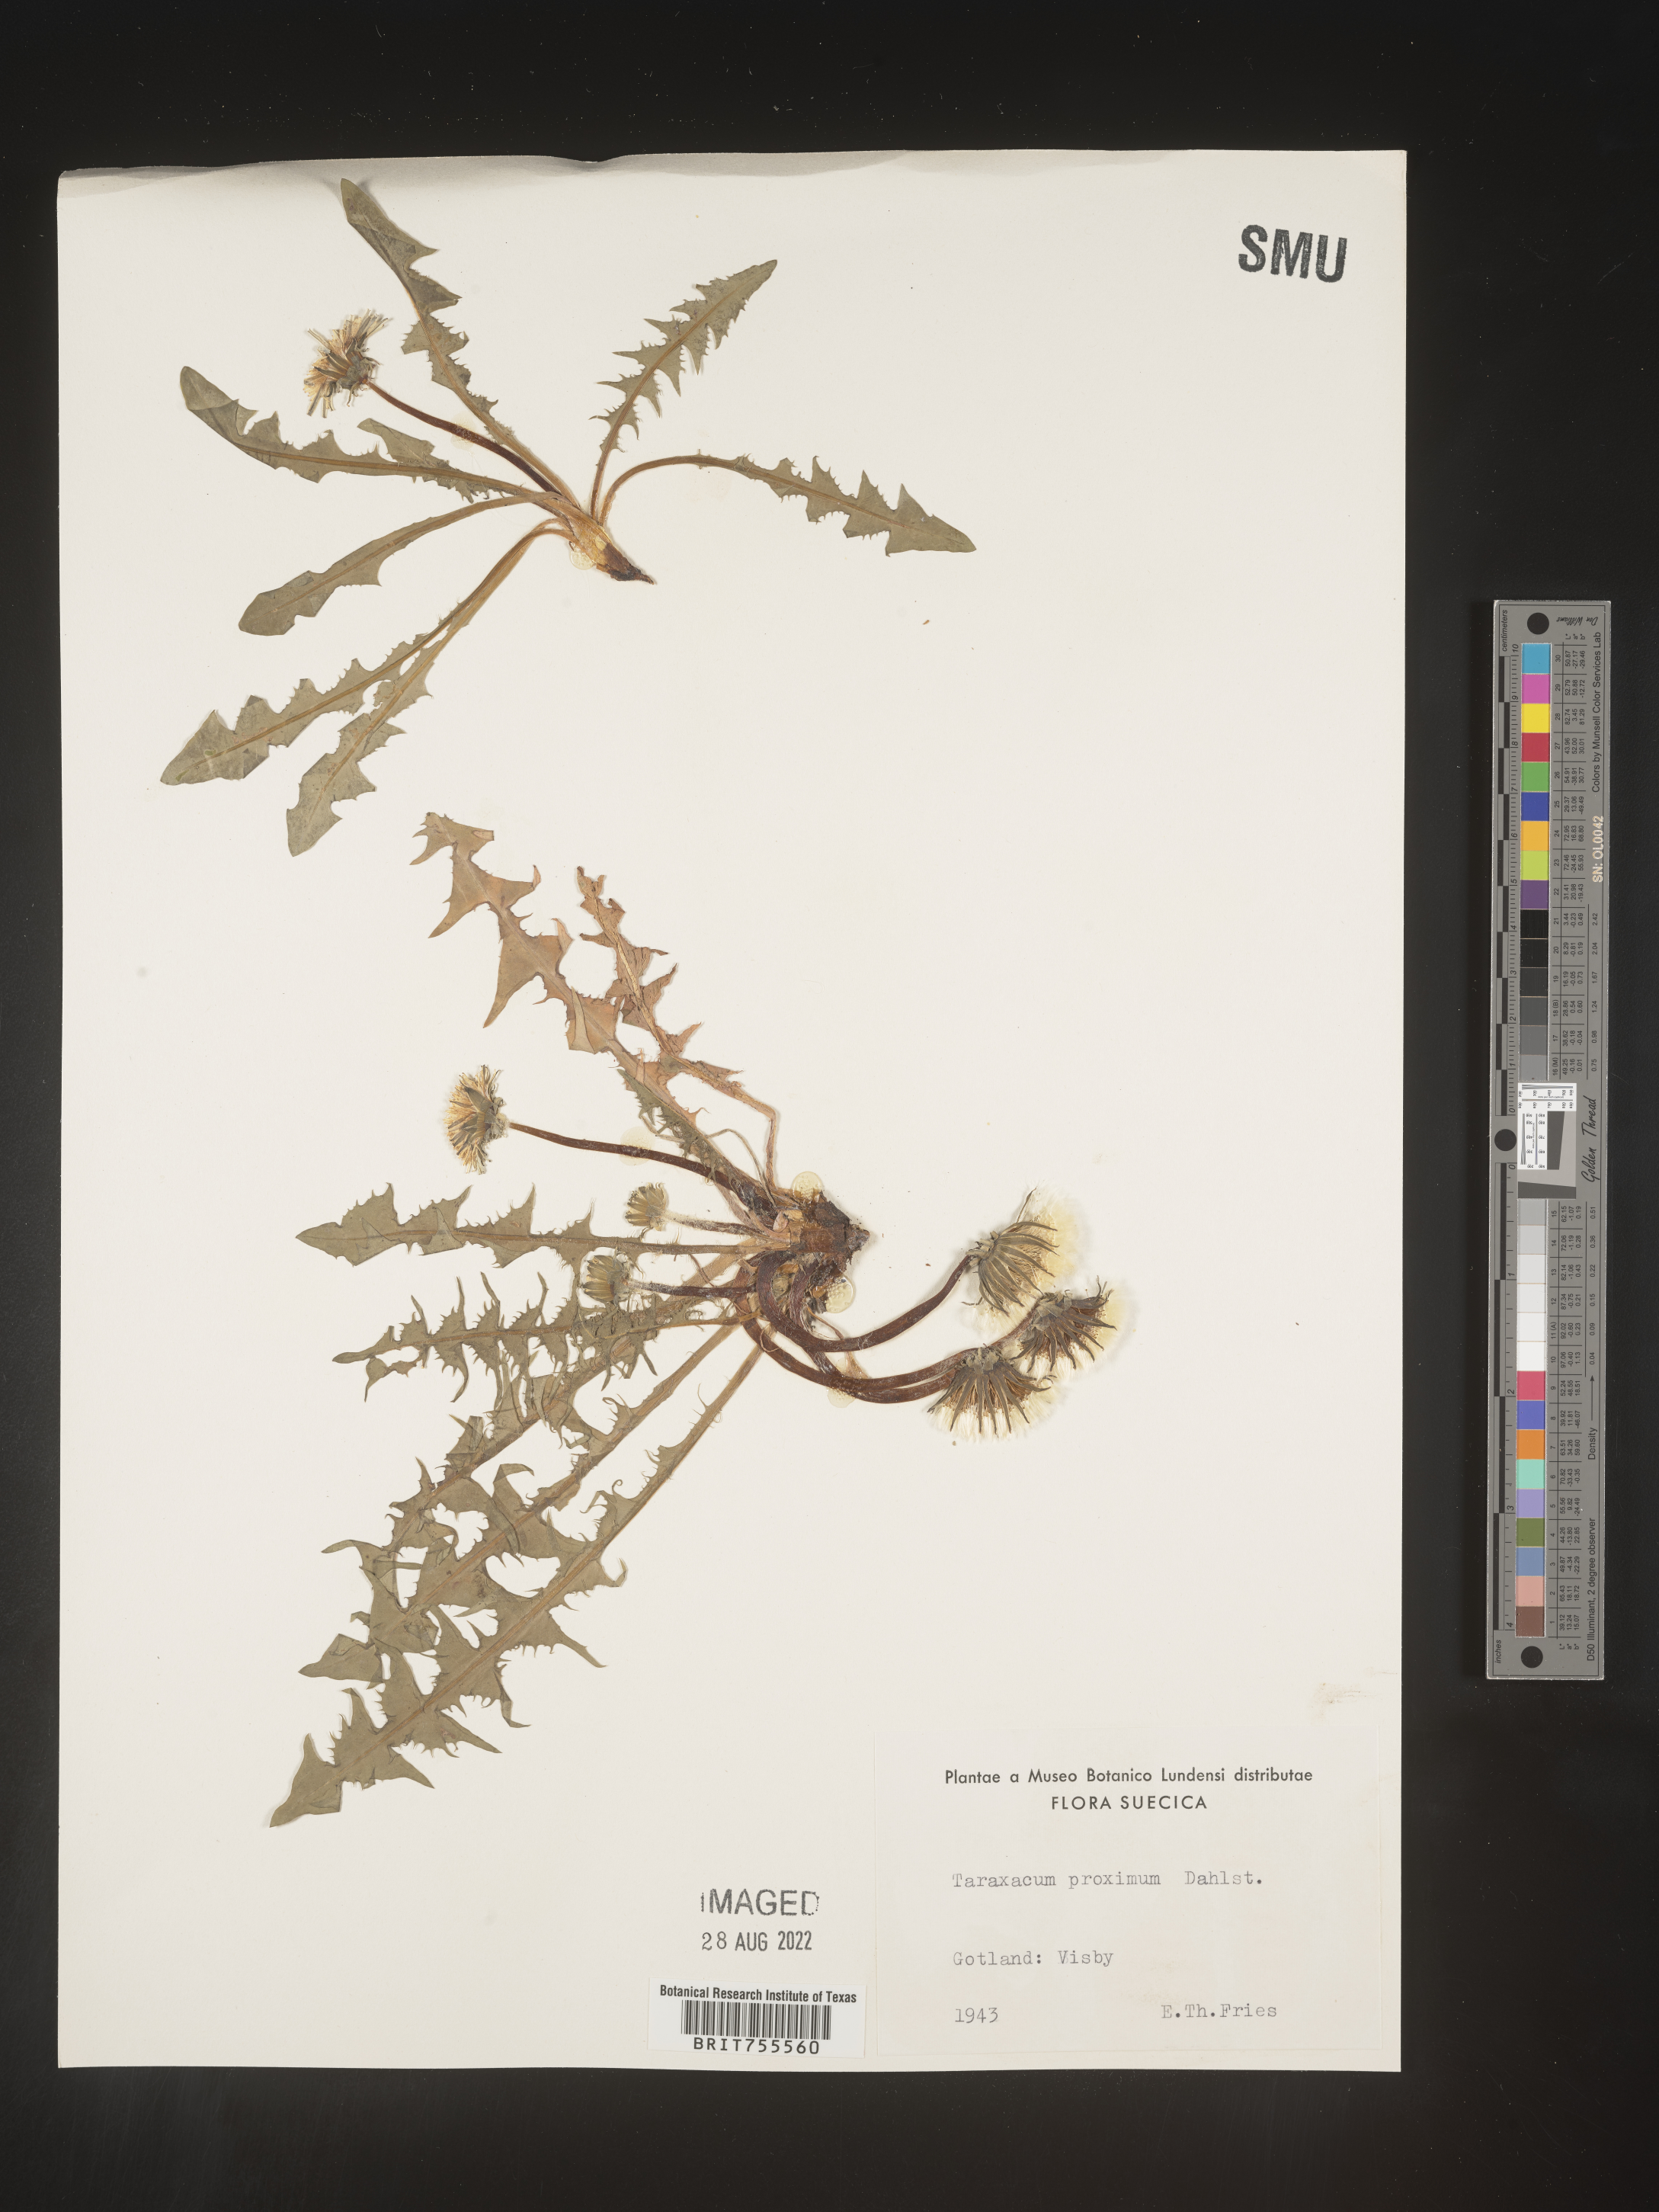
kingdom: Plantae
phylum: Tracheophyta
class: Magnoliopsida
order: Asterales
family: Asteraceae
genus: Taraxacum
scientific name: Taraxacum
